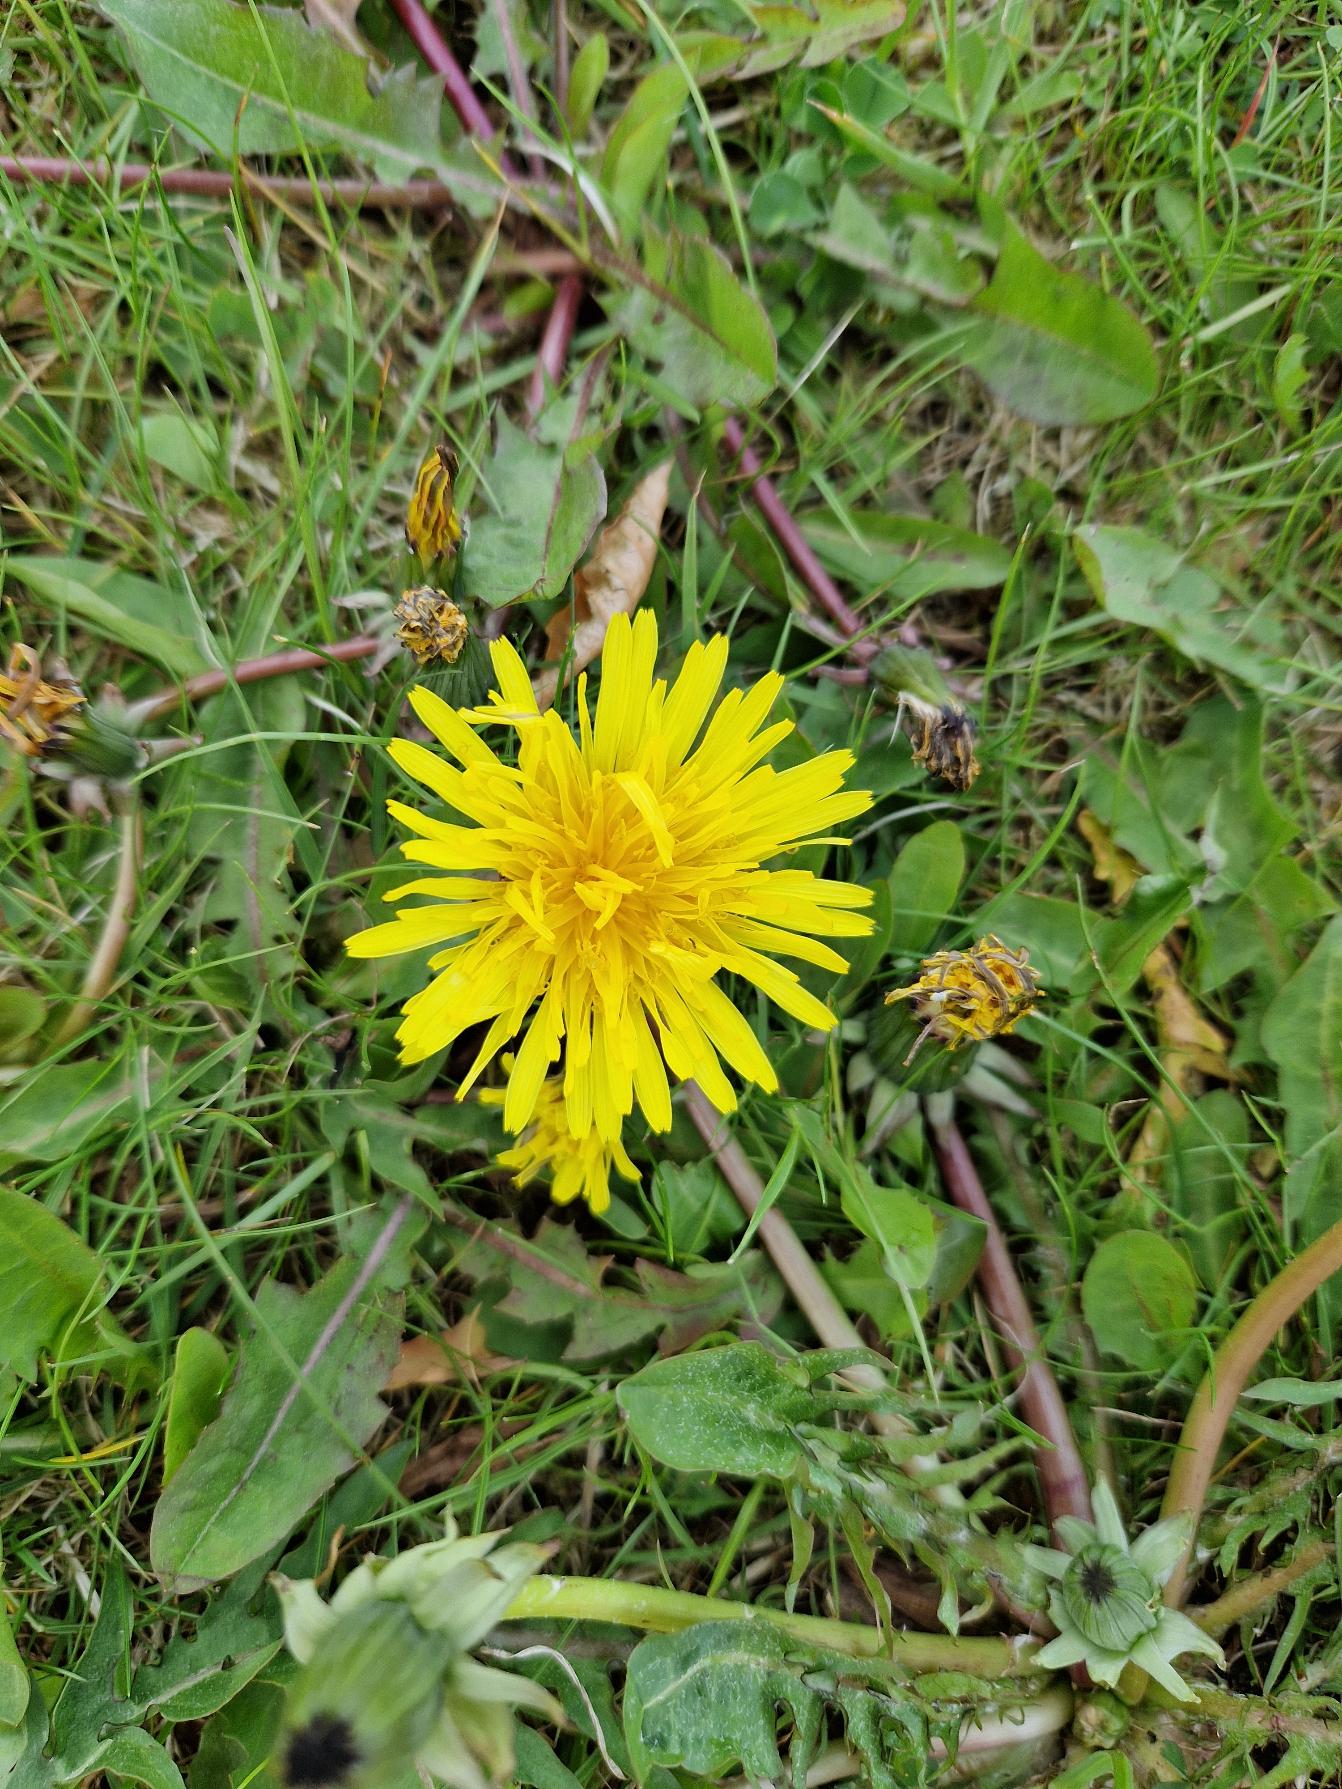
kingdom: Plantae
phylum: Tracheophyta
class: Magnoliopsida
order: Asterales
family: Asteraceae
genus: Taraxacum
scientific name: Taraxacum
